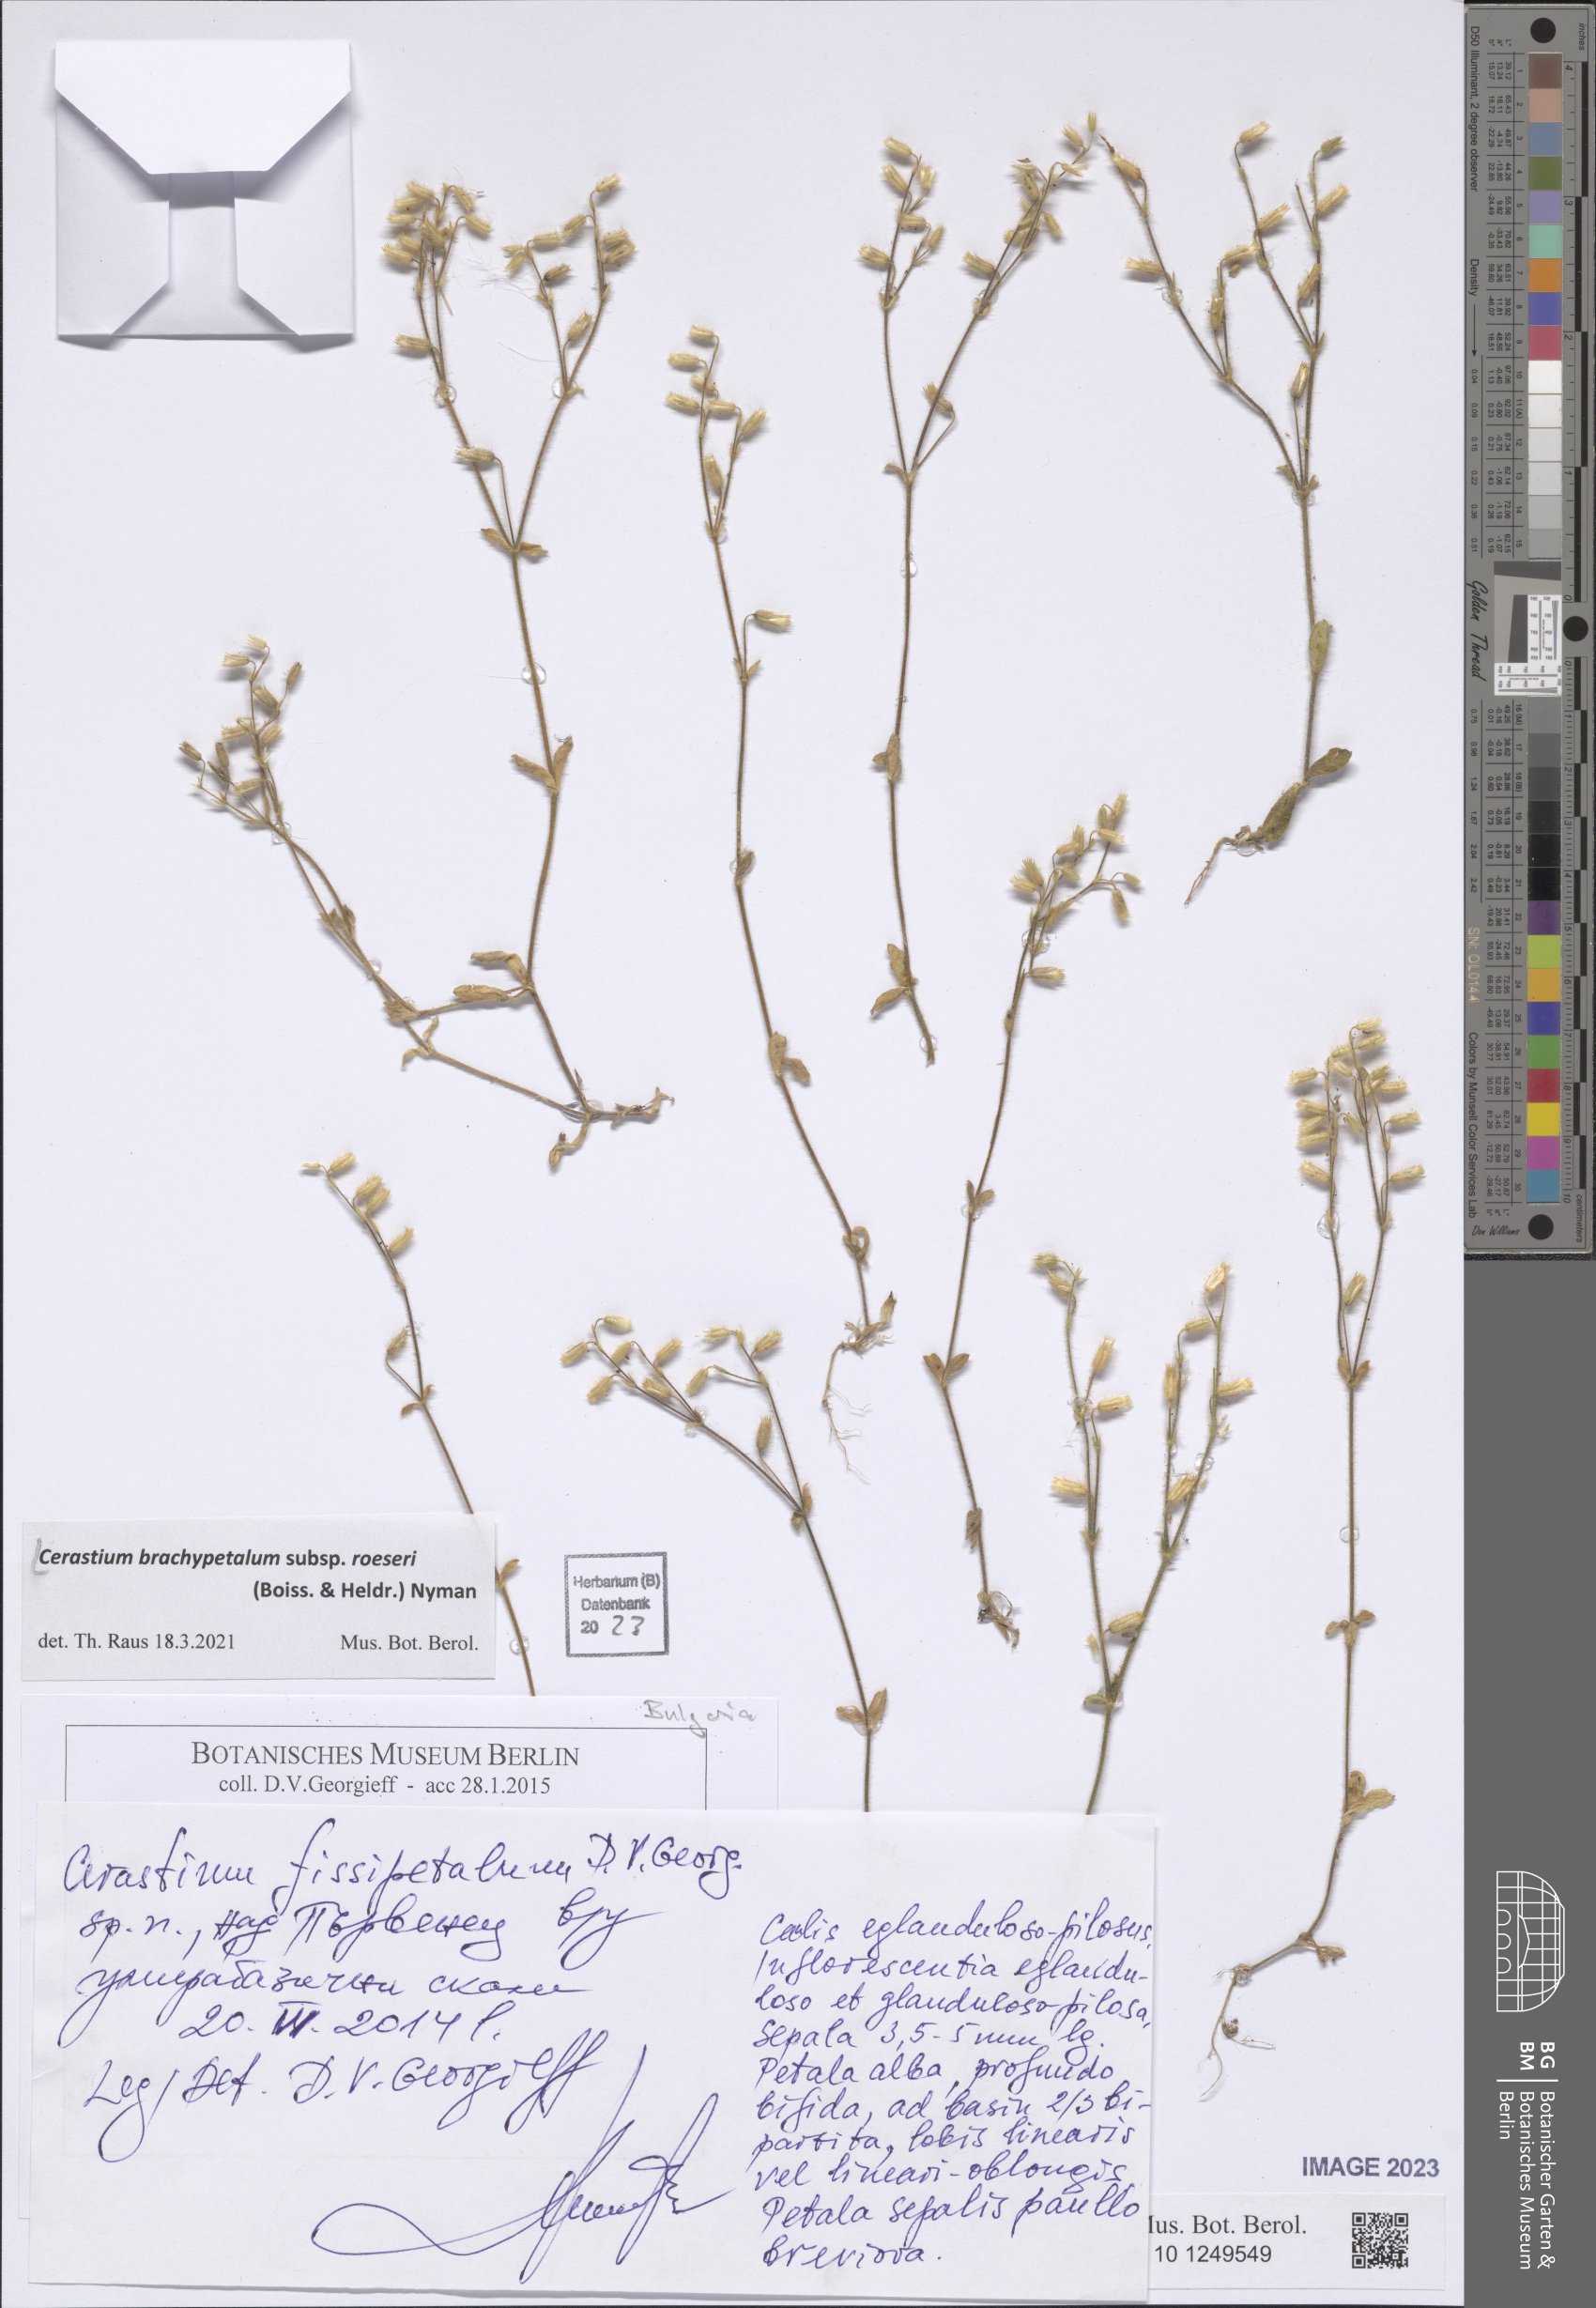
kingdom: Plantae
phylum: Tracheophyta
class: Magnoliopsida
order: Caryophyllales
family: Caryophyllaceae
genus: Cerastium
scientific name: Cerastium brachypetalum
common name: Grey mouse-ear
